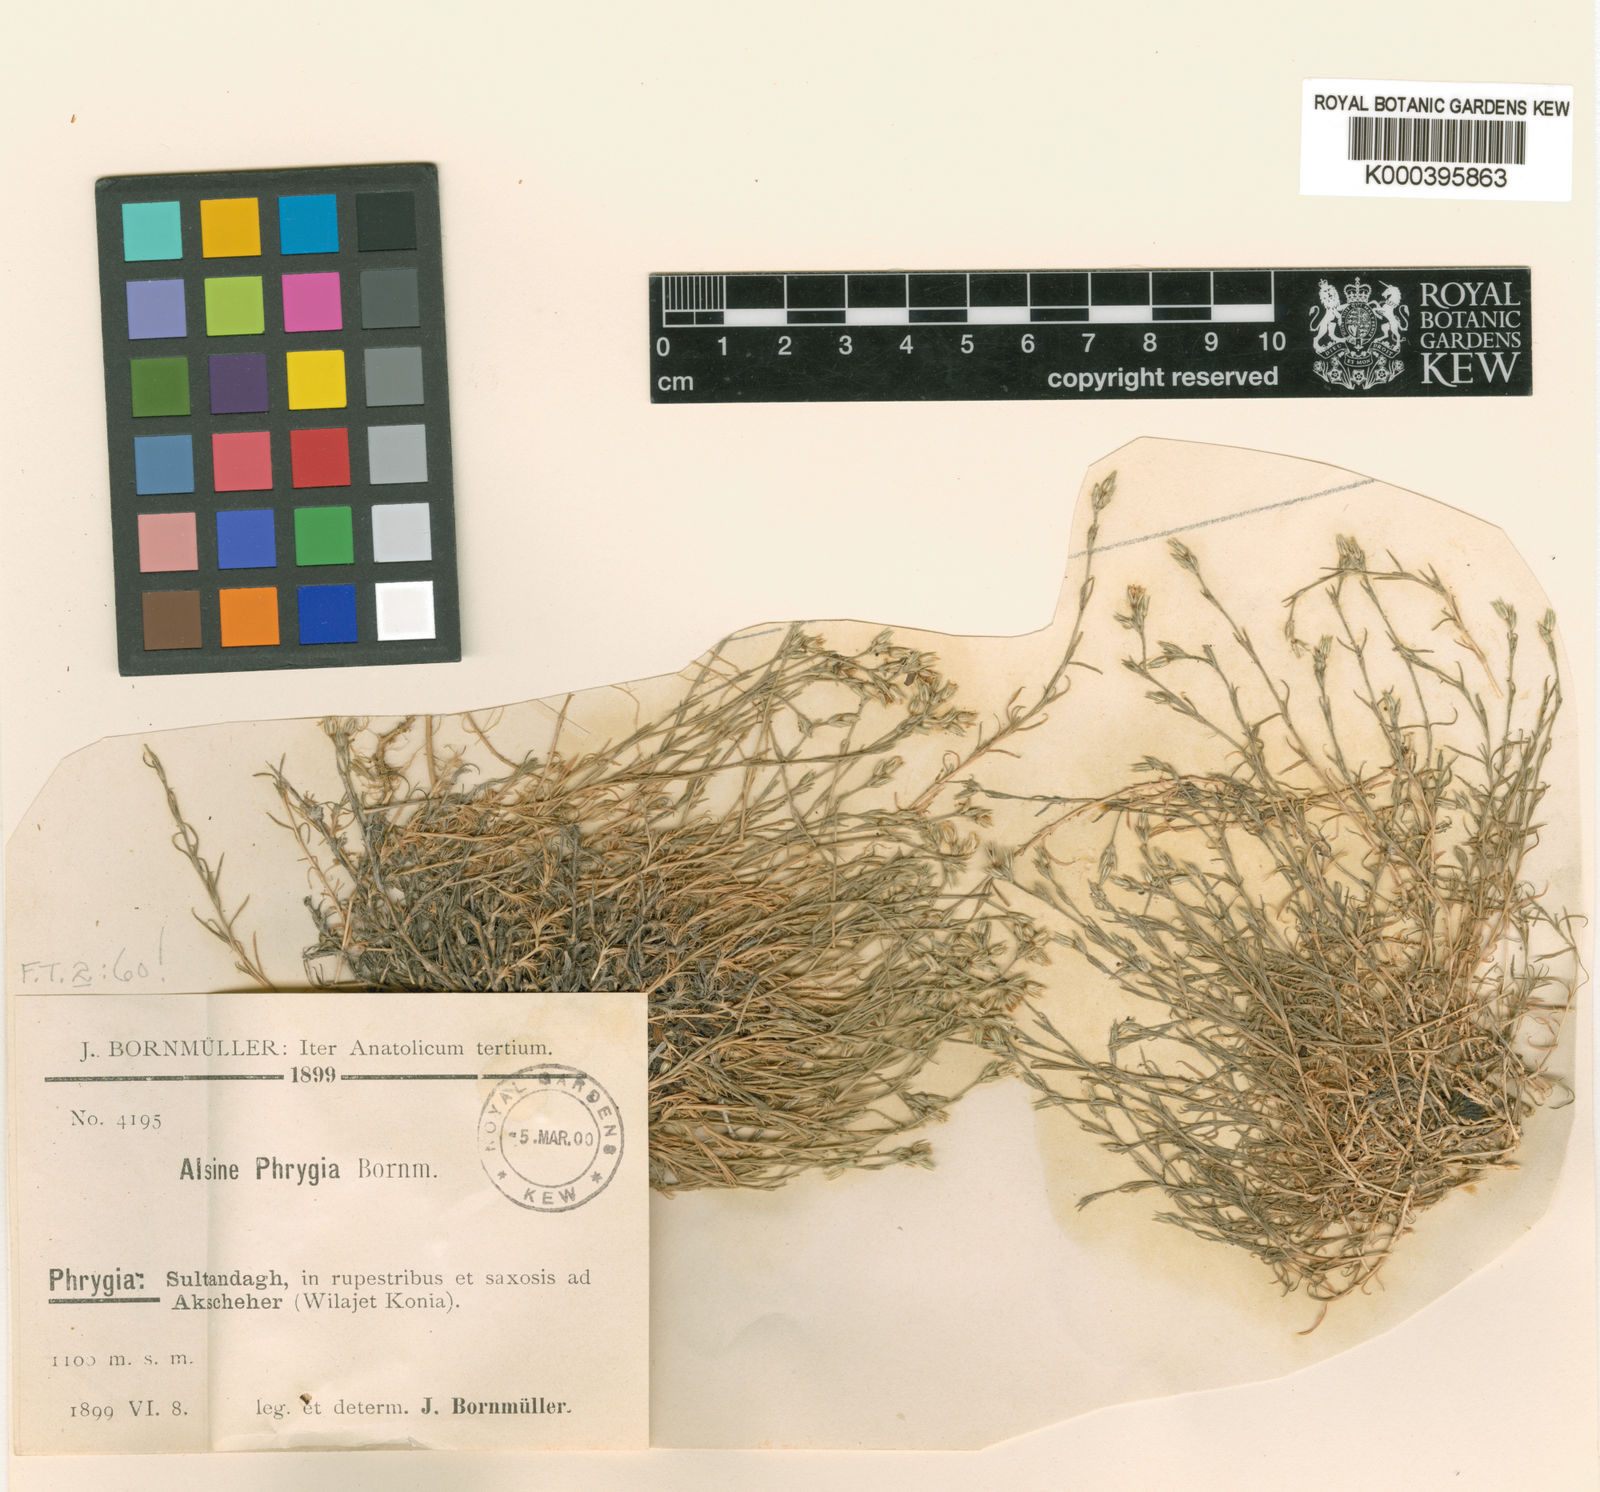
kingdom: Plantae
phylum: Tracheophyta
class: Magnoliopsida
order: Caryophyllales
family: Caryophyllaceae
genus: Minuartia
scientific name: Minuartia
